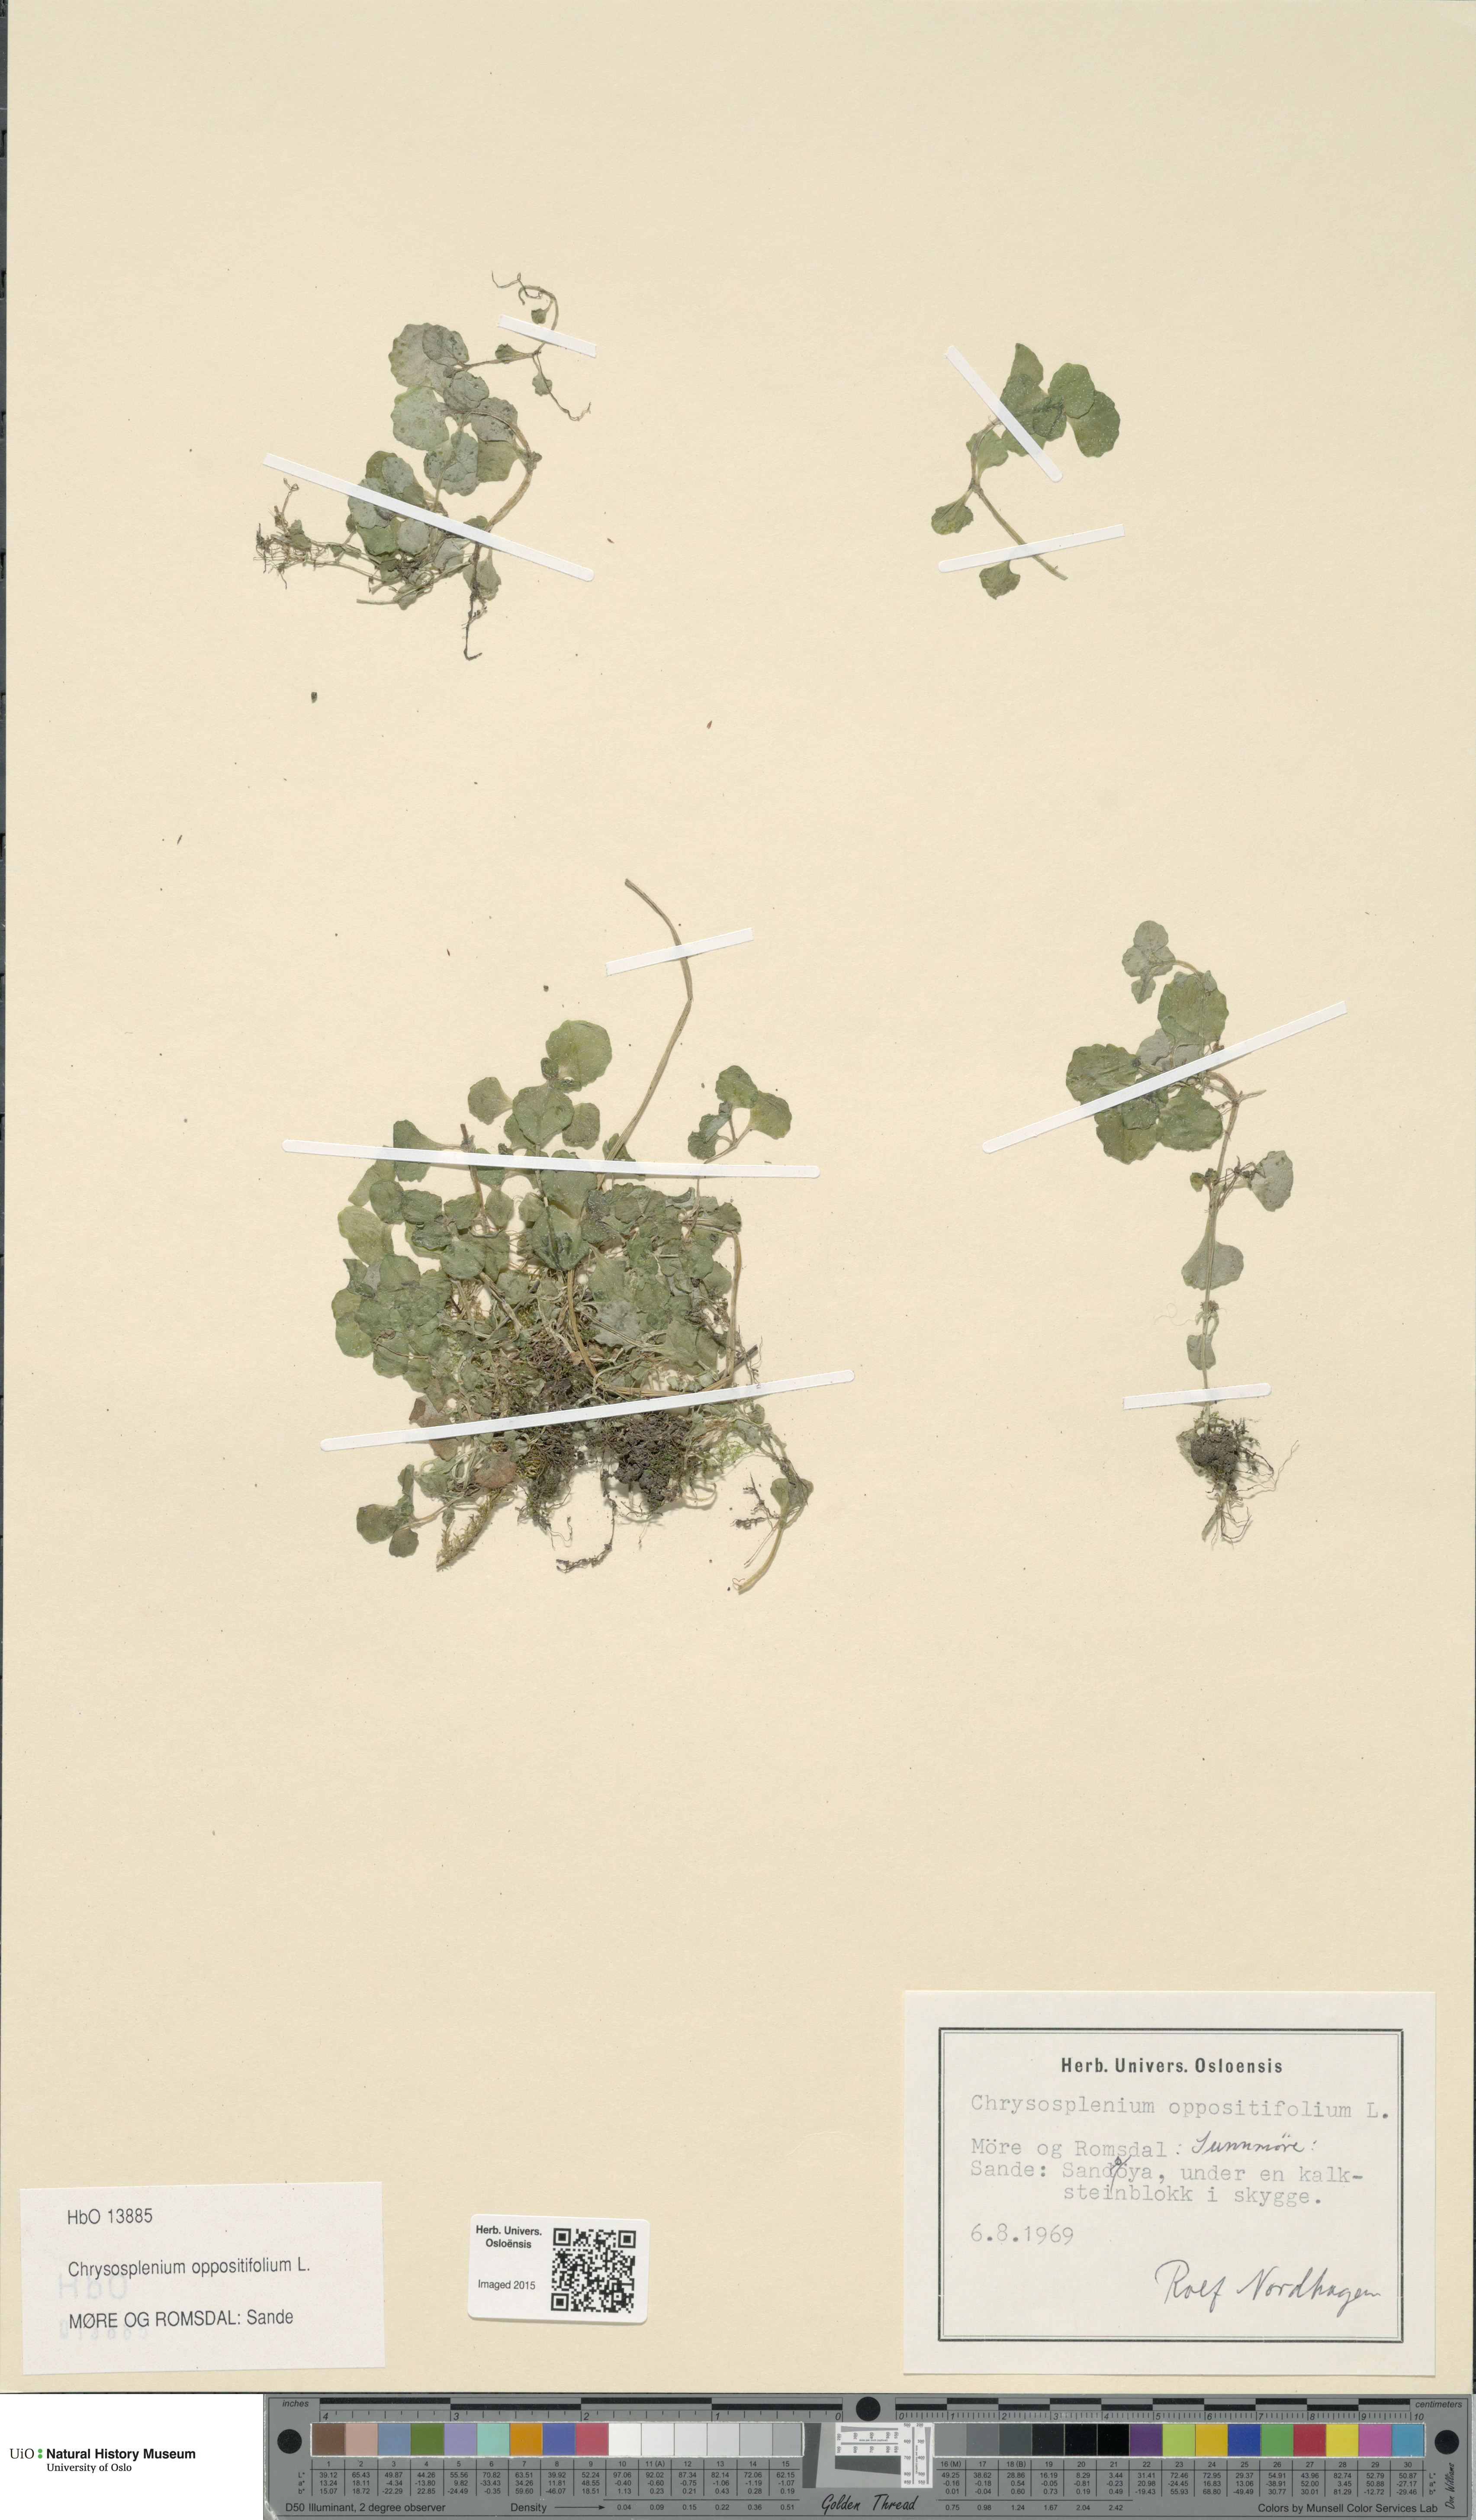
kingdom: Plantae
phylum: Tracheophyta
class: Magnoliopsida
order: Saxifragales
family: Saxifragaceae
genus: Chrysosplenium
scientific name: Chrysosplenium oppositifolium
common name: Opposite-leaved golden-saxifrage
